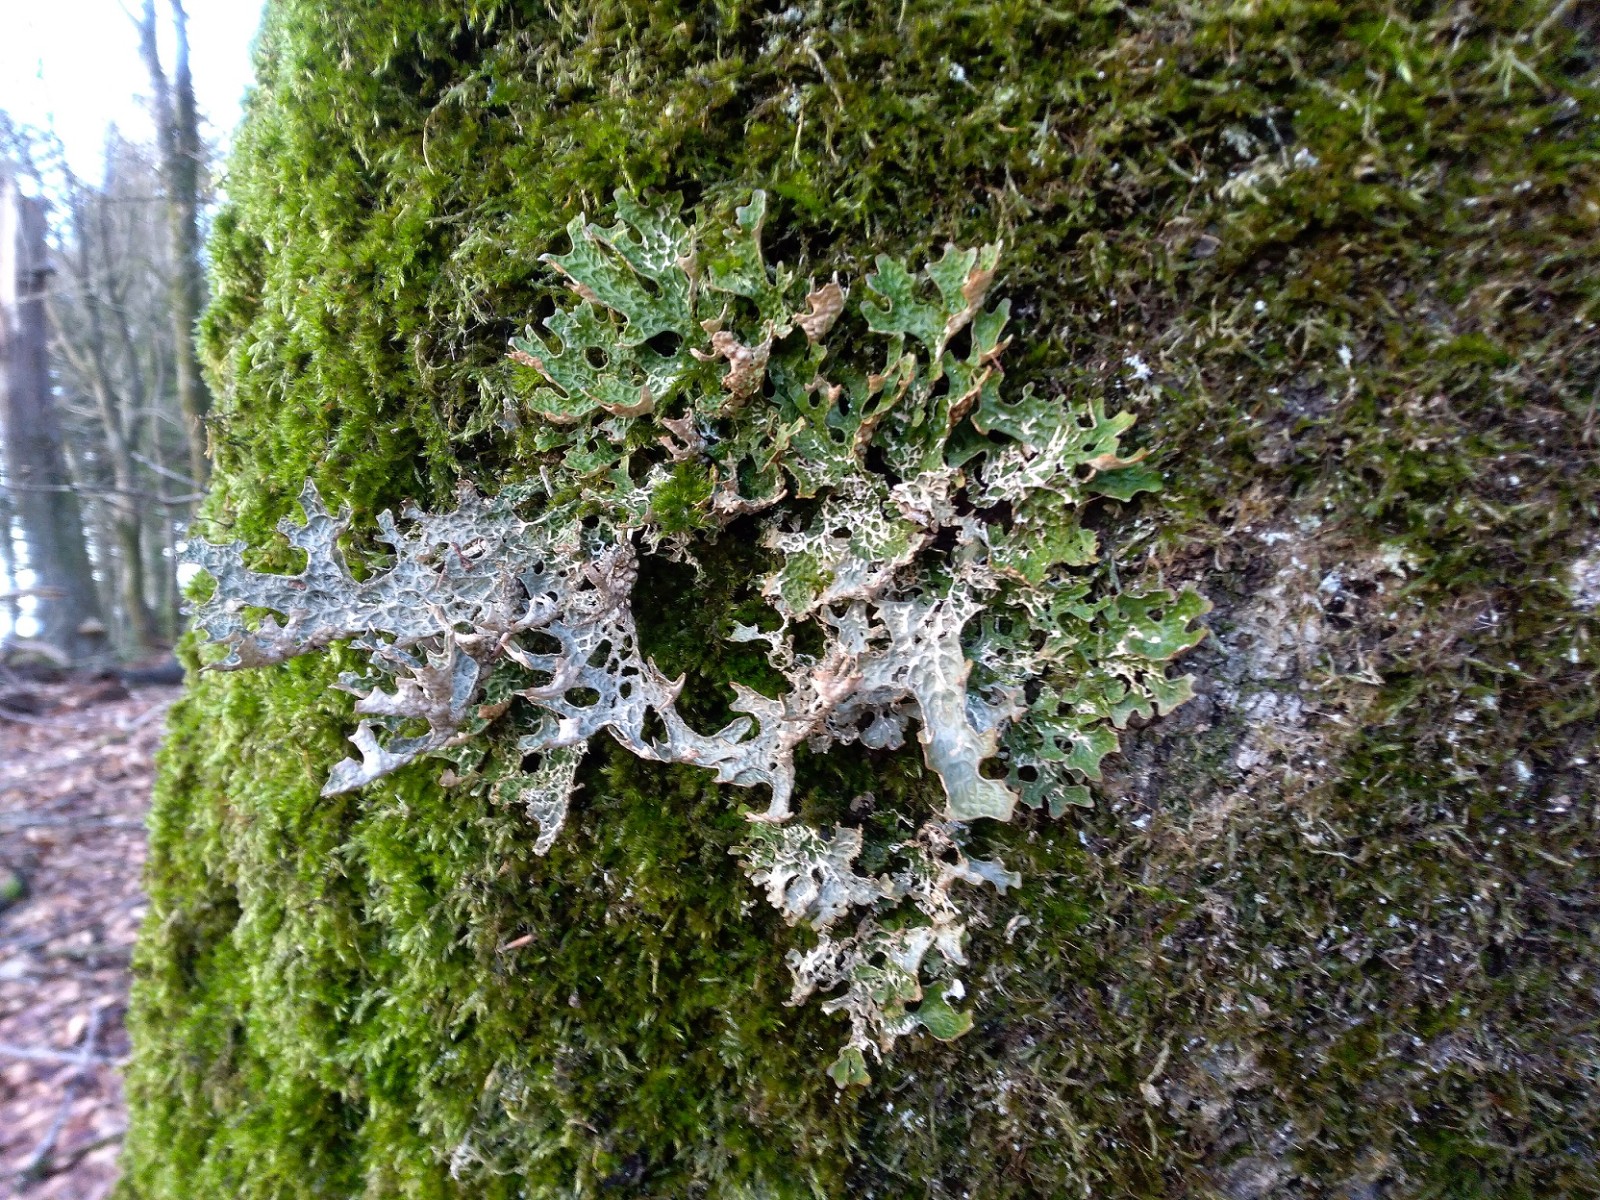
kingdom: Fungi
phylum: Ascomycota
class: Lecanoromycetes
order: Peltigerales
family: Lobariaceae
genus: Lobaria
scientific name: Lobaria pulmonaria
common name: almindelig lungelav
